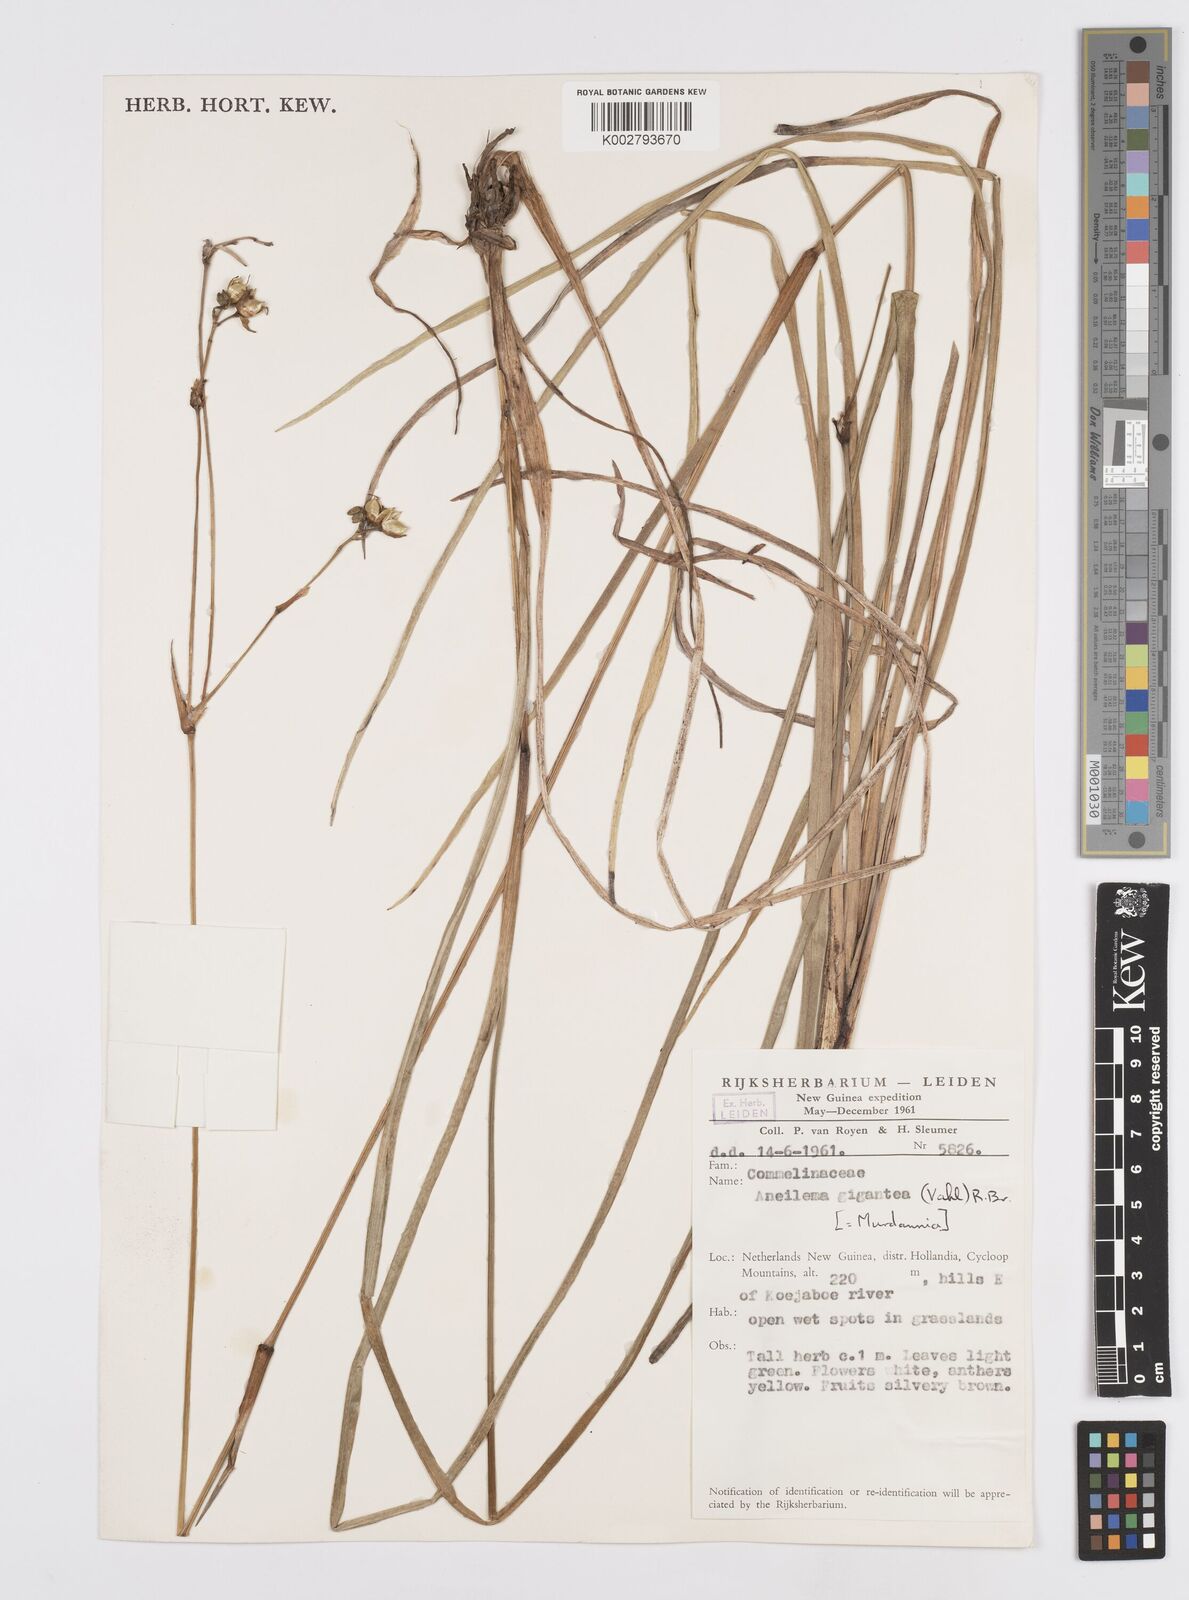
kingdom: Plantae
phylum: Tracheophyta
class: Liliopsida
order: Commelinales
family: Commelinaceae
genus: Murdannia
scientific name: Murdannia gigantea
